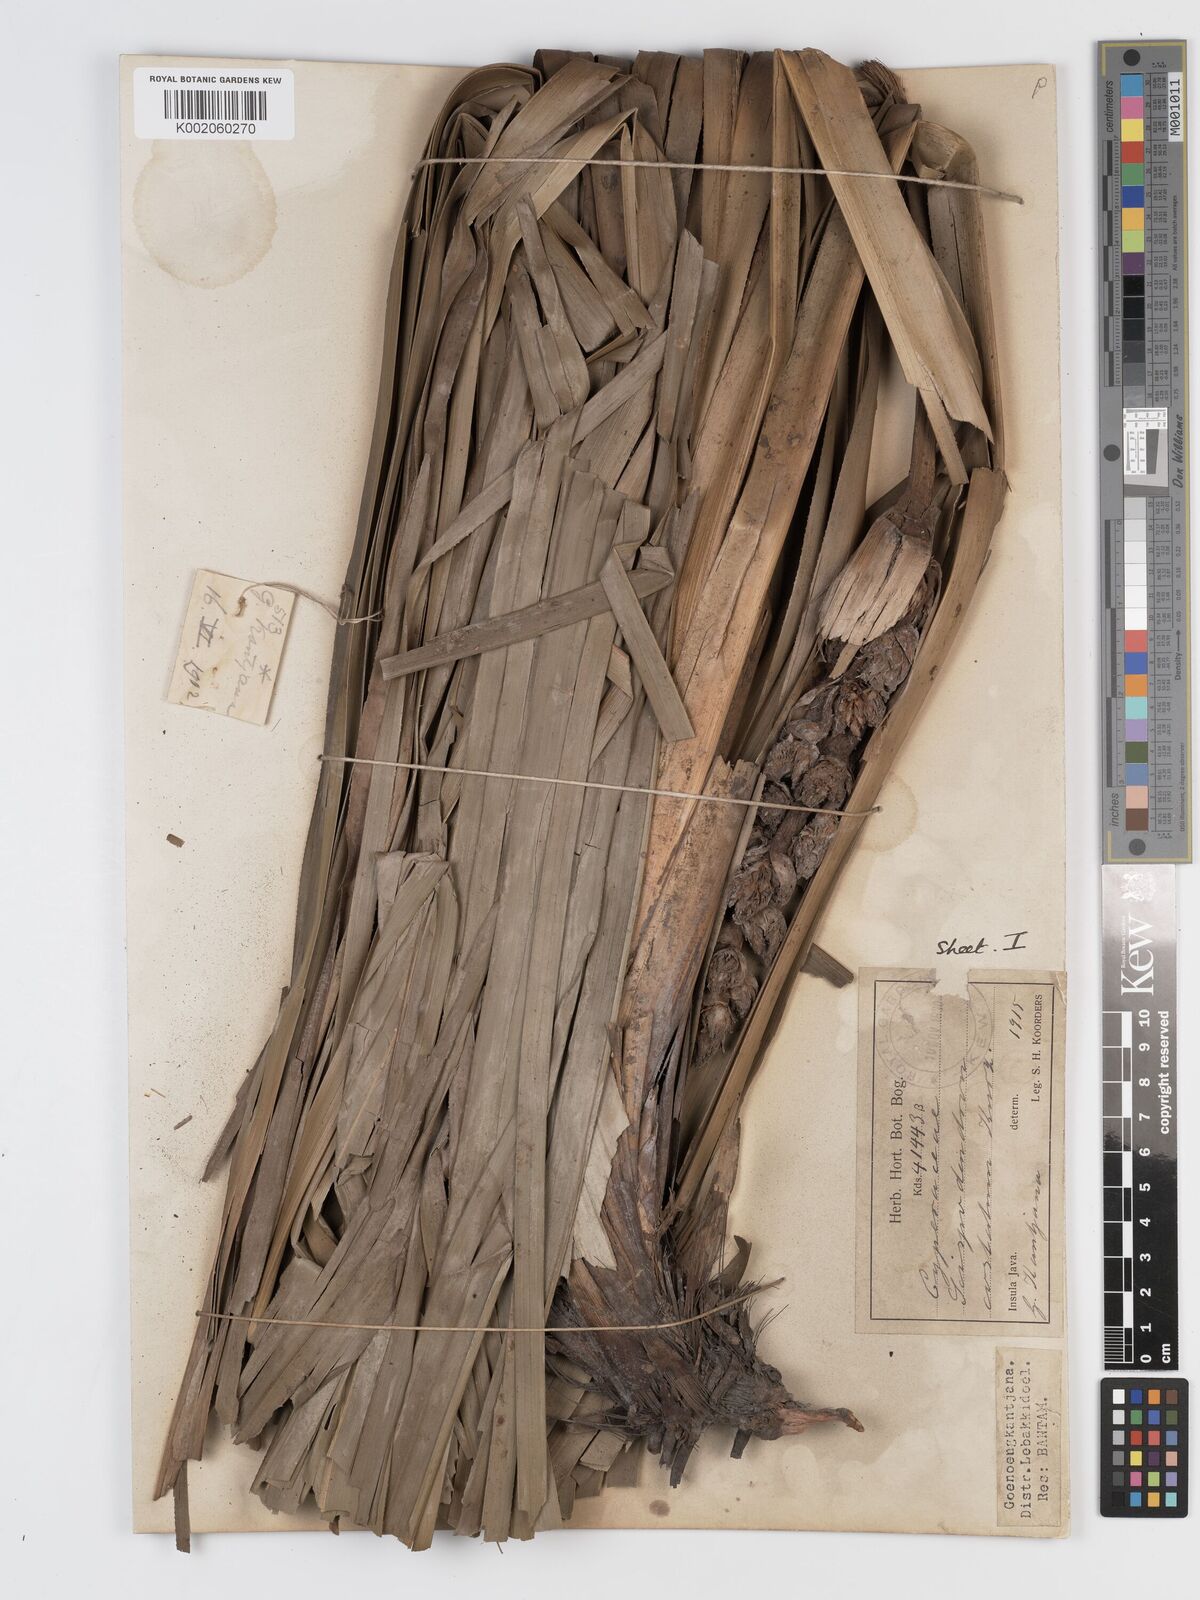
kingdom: Plantae
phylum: Tracheophyta
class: Liliopsida
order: Poales
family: Cyperaceae
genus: Scirpodendron
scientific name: Scirpodendron ghaeri
